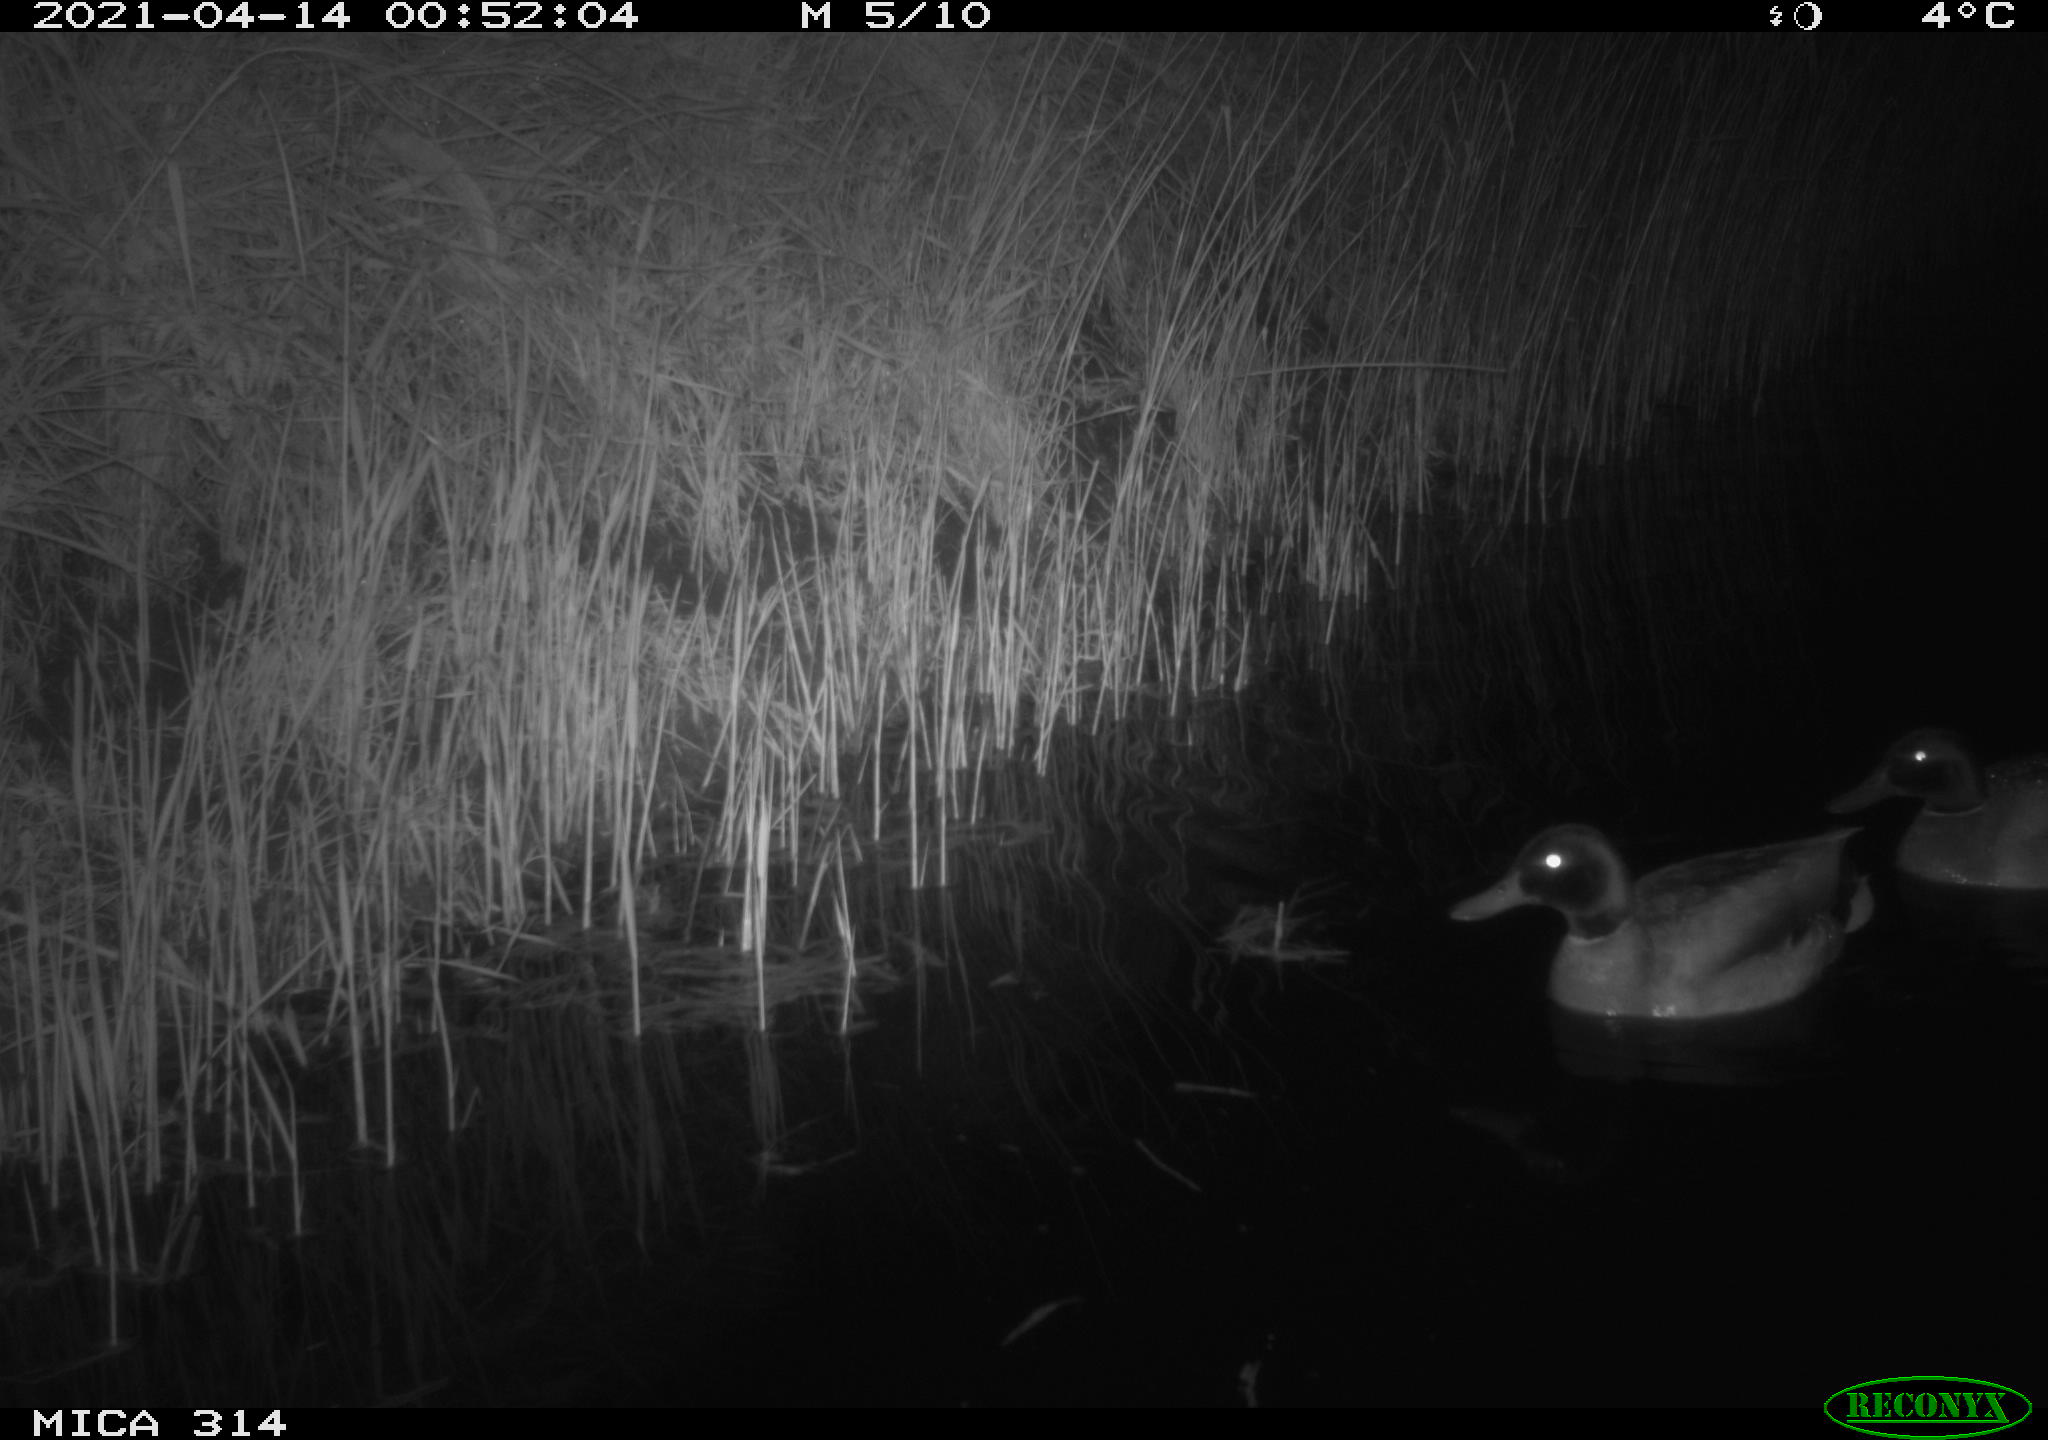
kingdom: Animalia
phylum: Chordata
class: Aves
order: Anseriformes
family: Anatidae
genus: Anas
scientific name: Anas platyrhynchos
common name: Mallard
